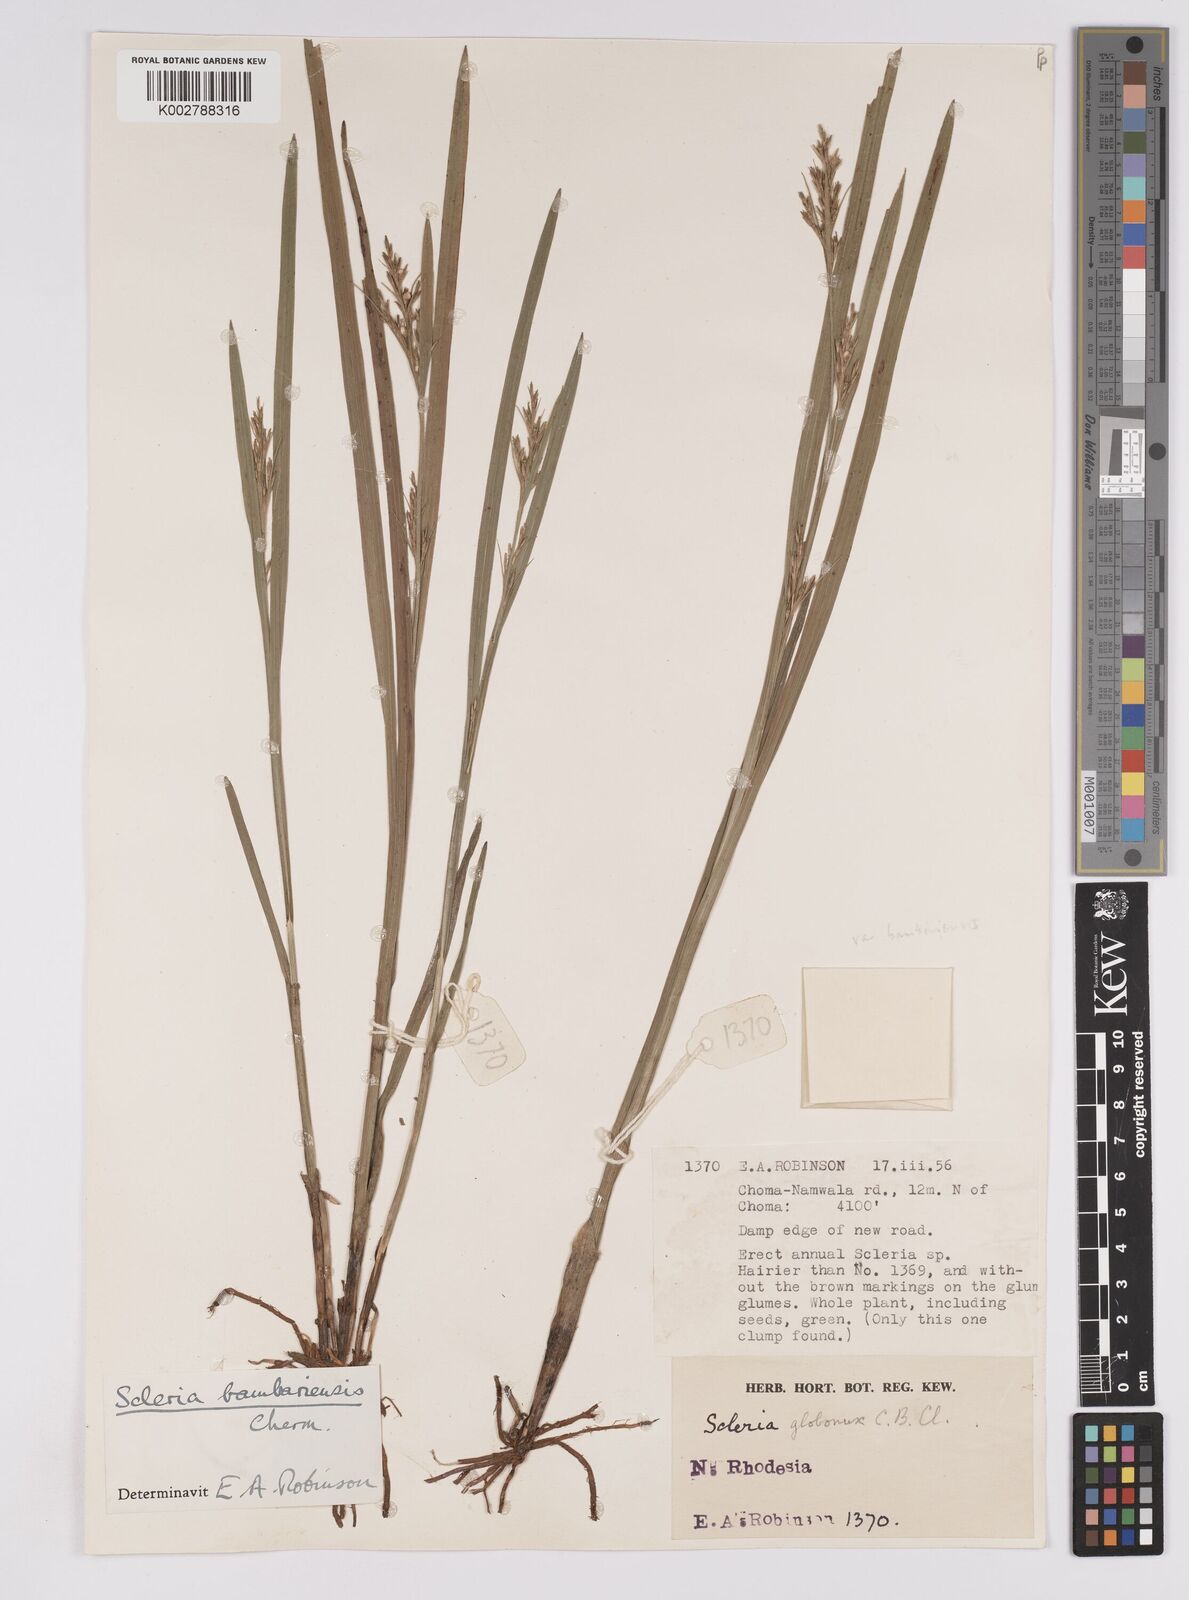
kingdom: Plantae
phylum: Tracheophyta
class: Liliopsida
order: Poales
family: Cyperaceae
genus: Scleria
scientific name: Scleria bambariensis
